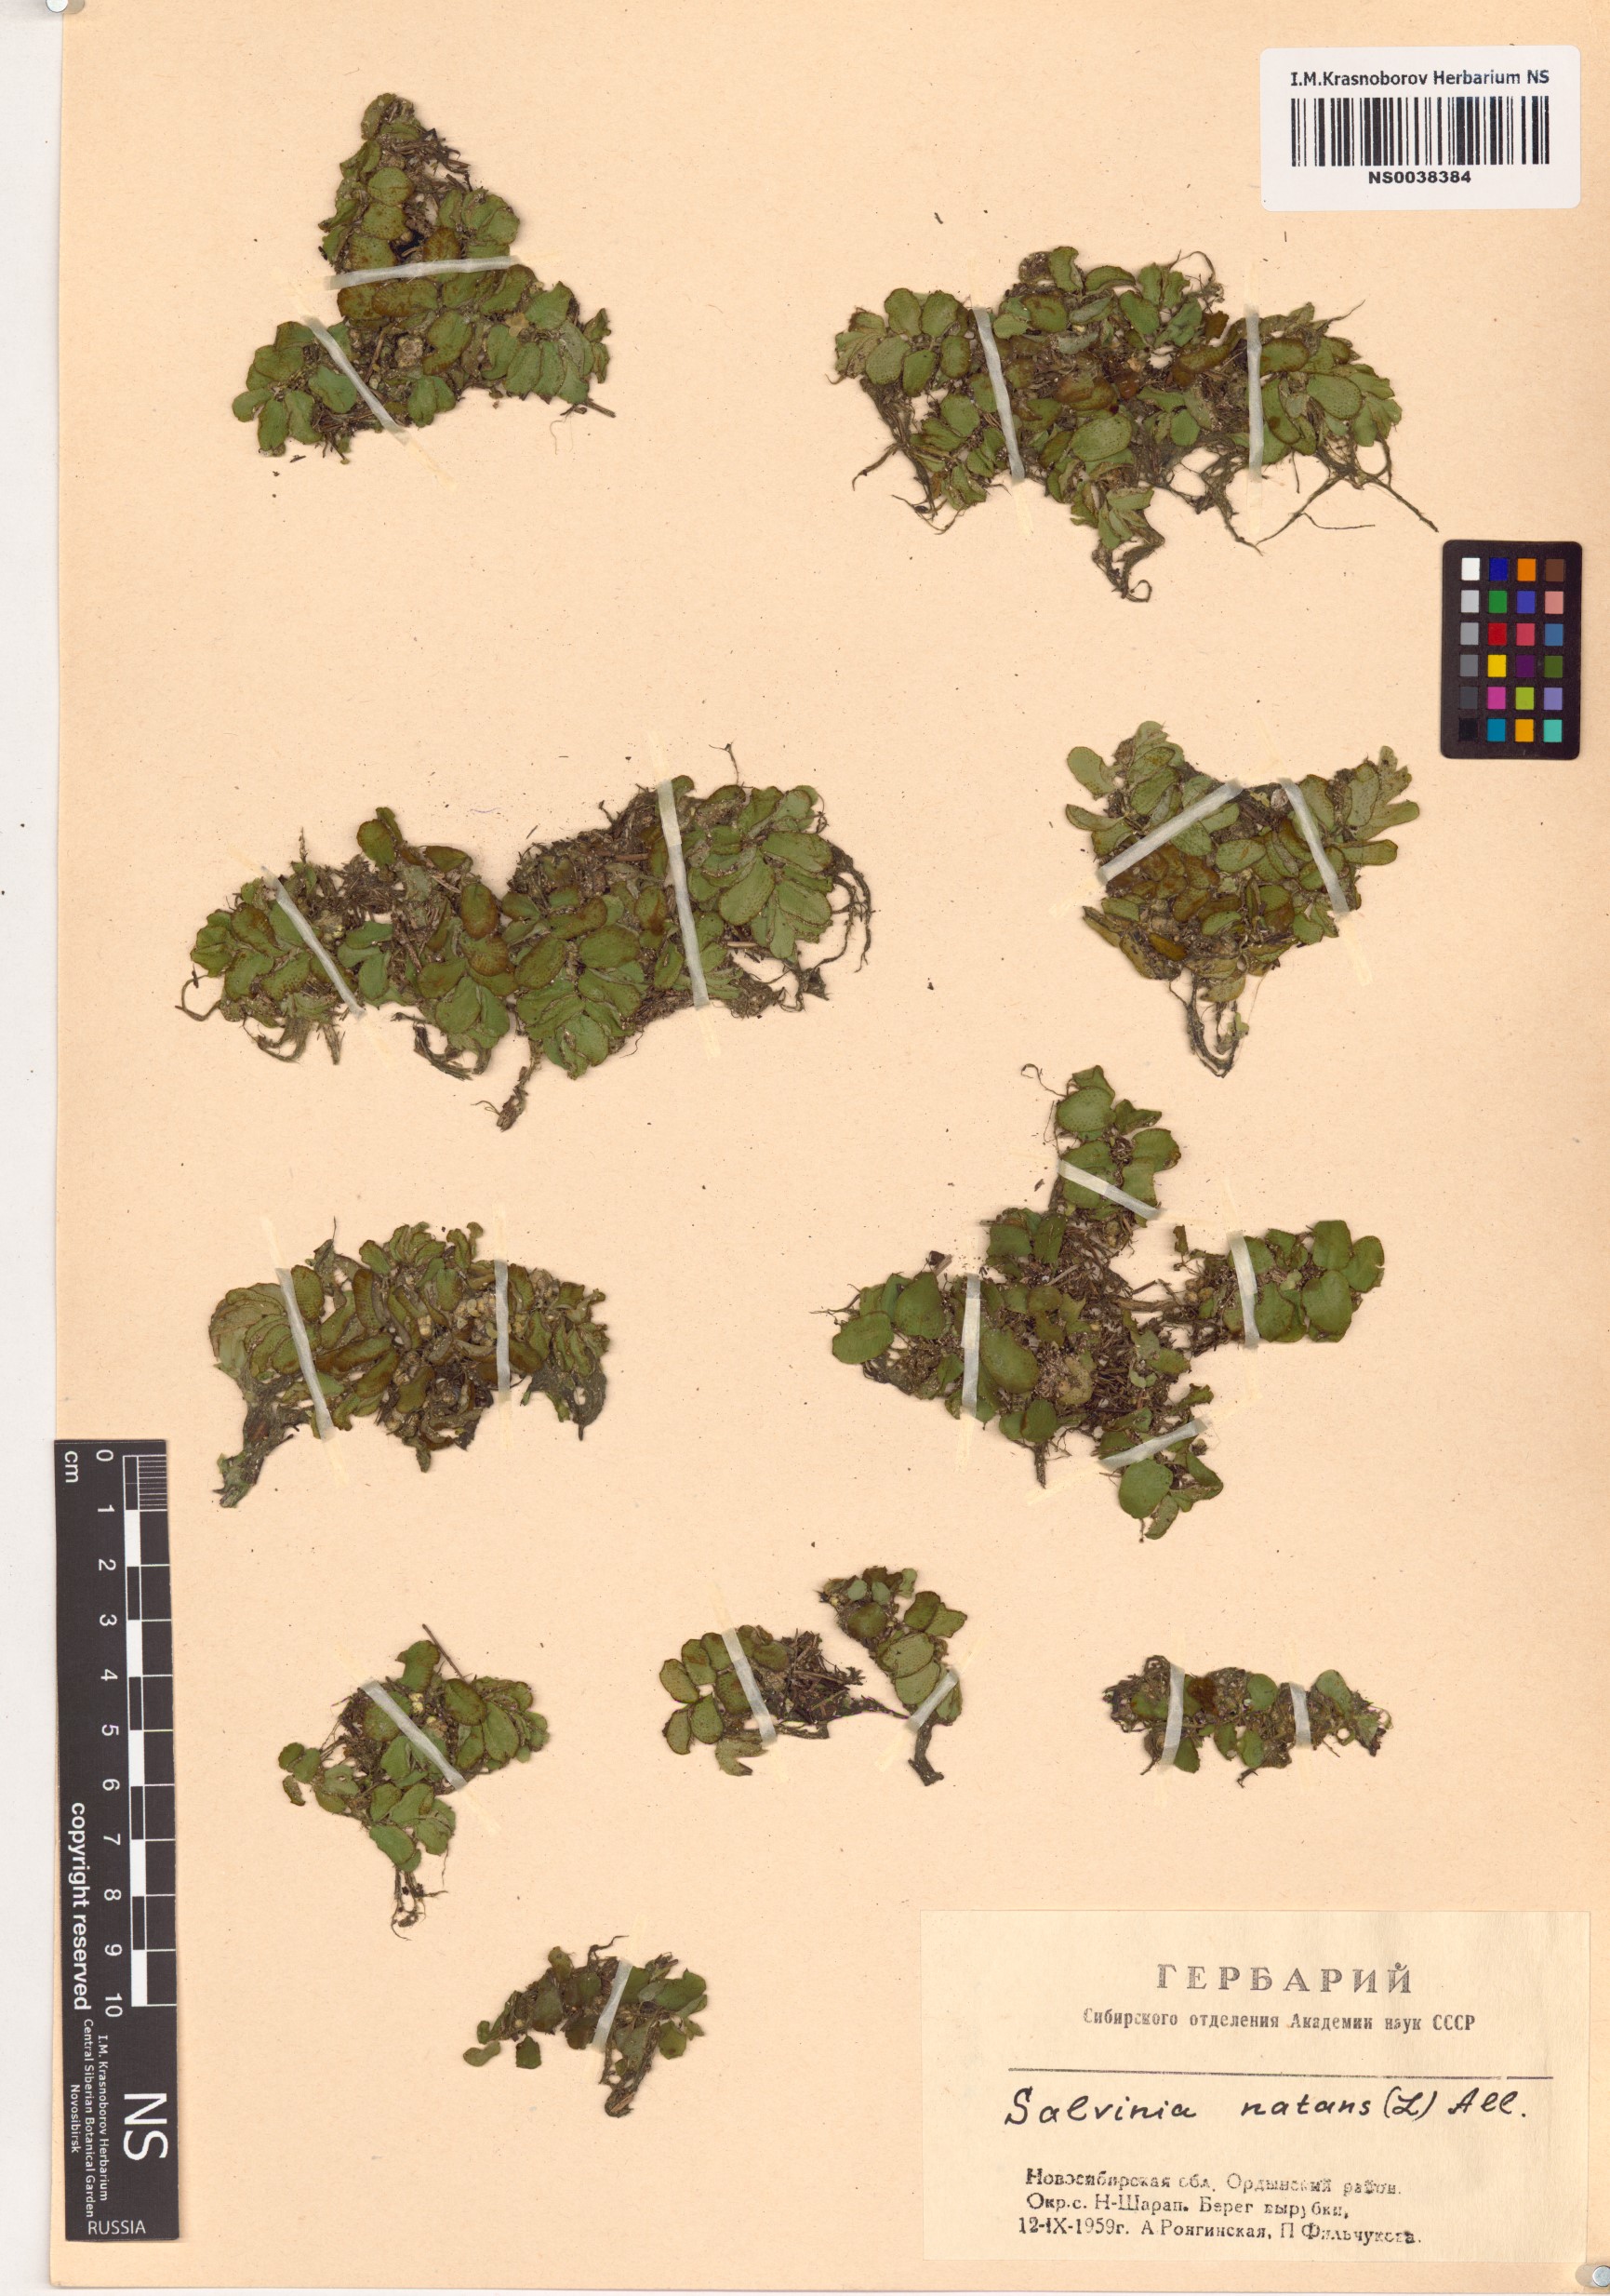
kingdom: Plantae
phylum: Tracheophyta
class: Polypodiopsida
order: Salviniales
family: Salviniaceae
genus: Salvinia
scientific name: Salvinia natans
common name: Floating fern
